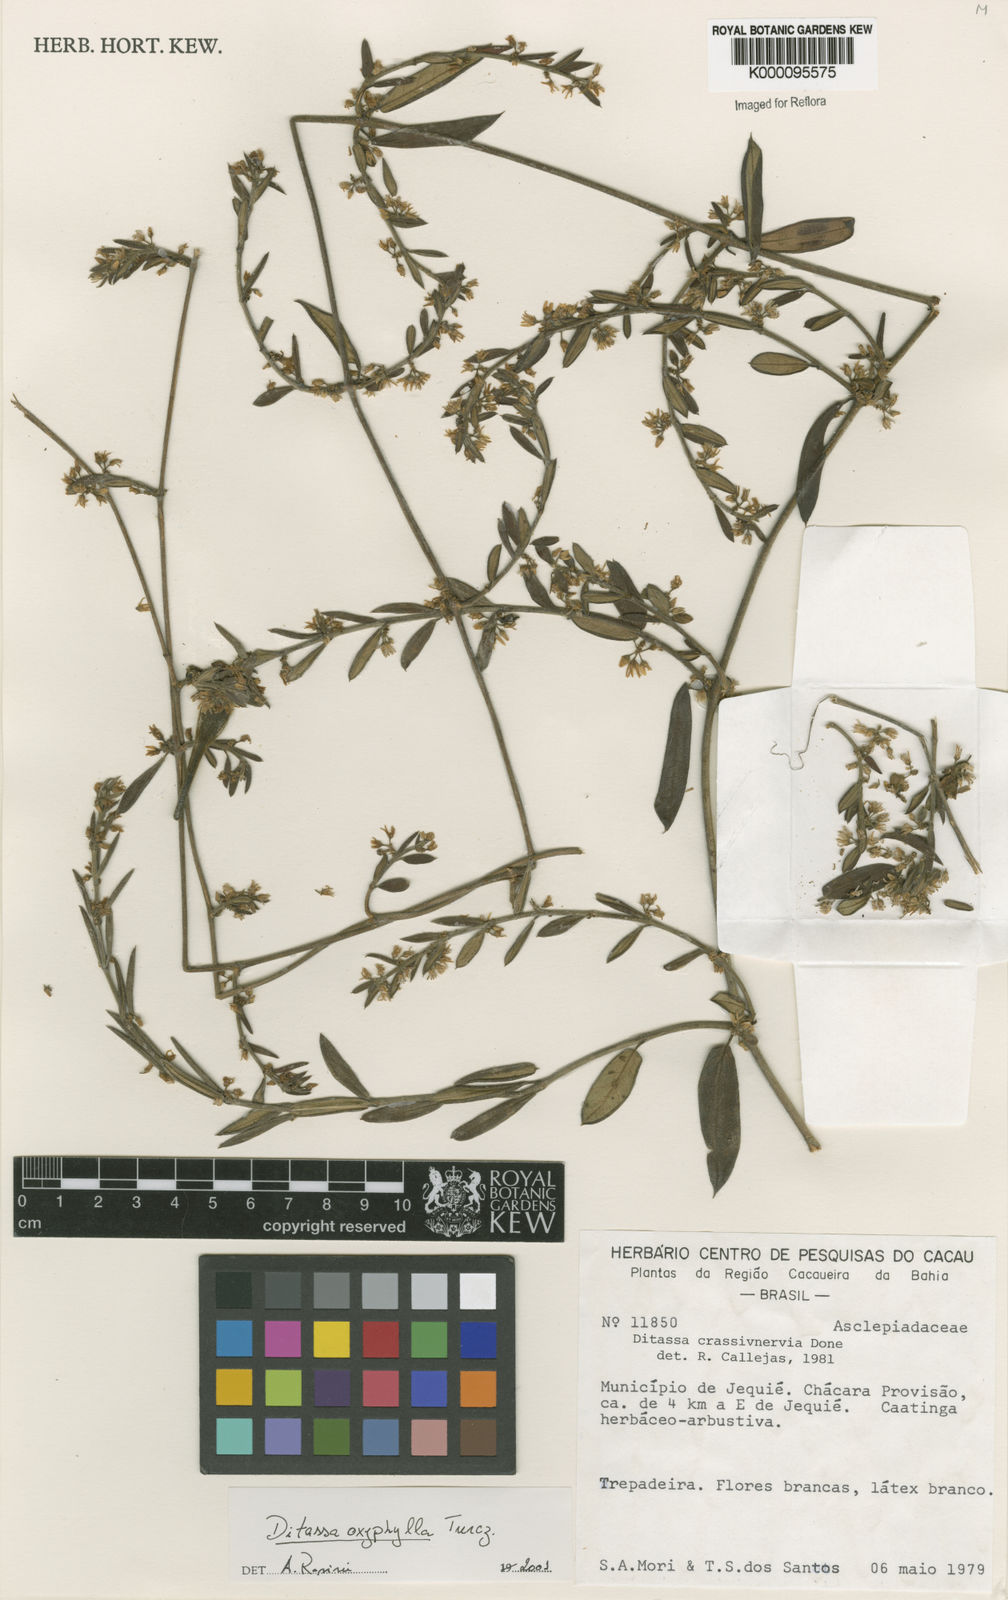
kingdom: Plantae
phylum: Tracheophyta
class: Magnoliopsida
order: Gentianales
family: Apocynaceae
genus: Ditassa
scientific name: Ditassa oxyphylla
